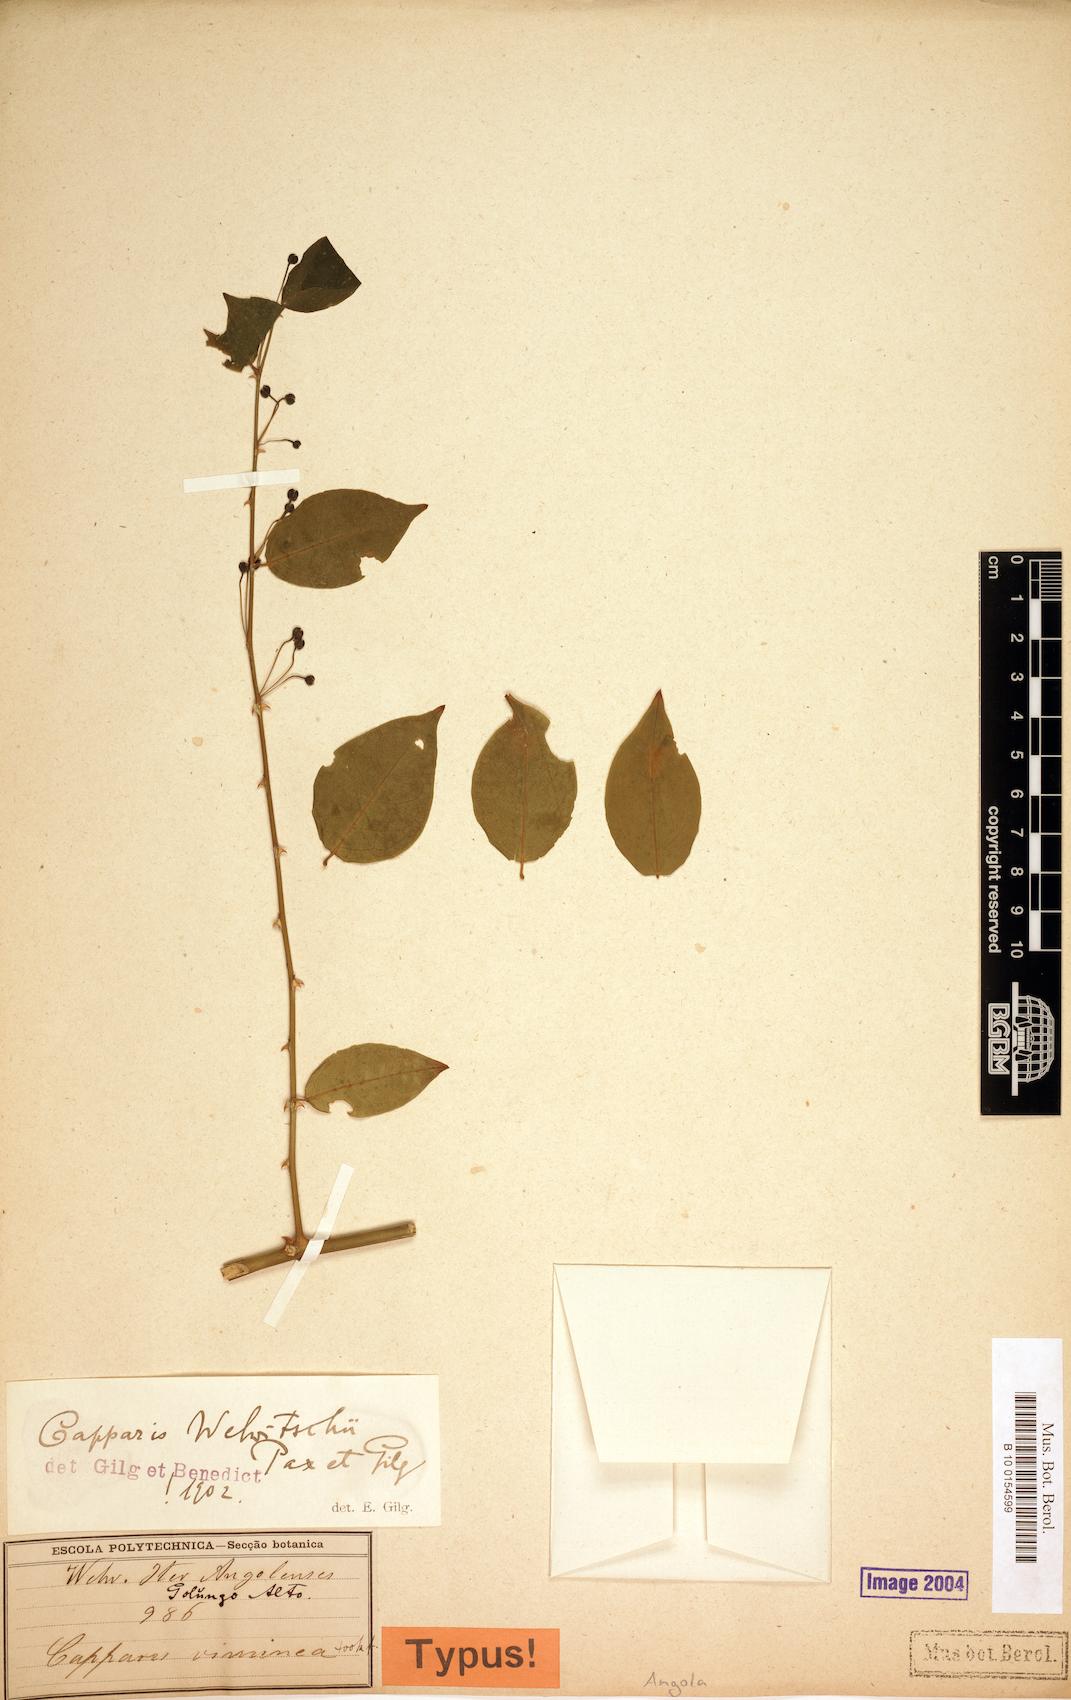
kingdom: Plantae
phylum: Tracheophyta
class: Magnoliopsida
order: Brassicales
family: Capparaceae
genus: Capparis
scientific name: Capparis viminea
